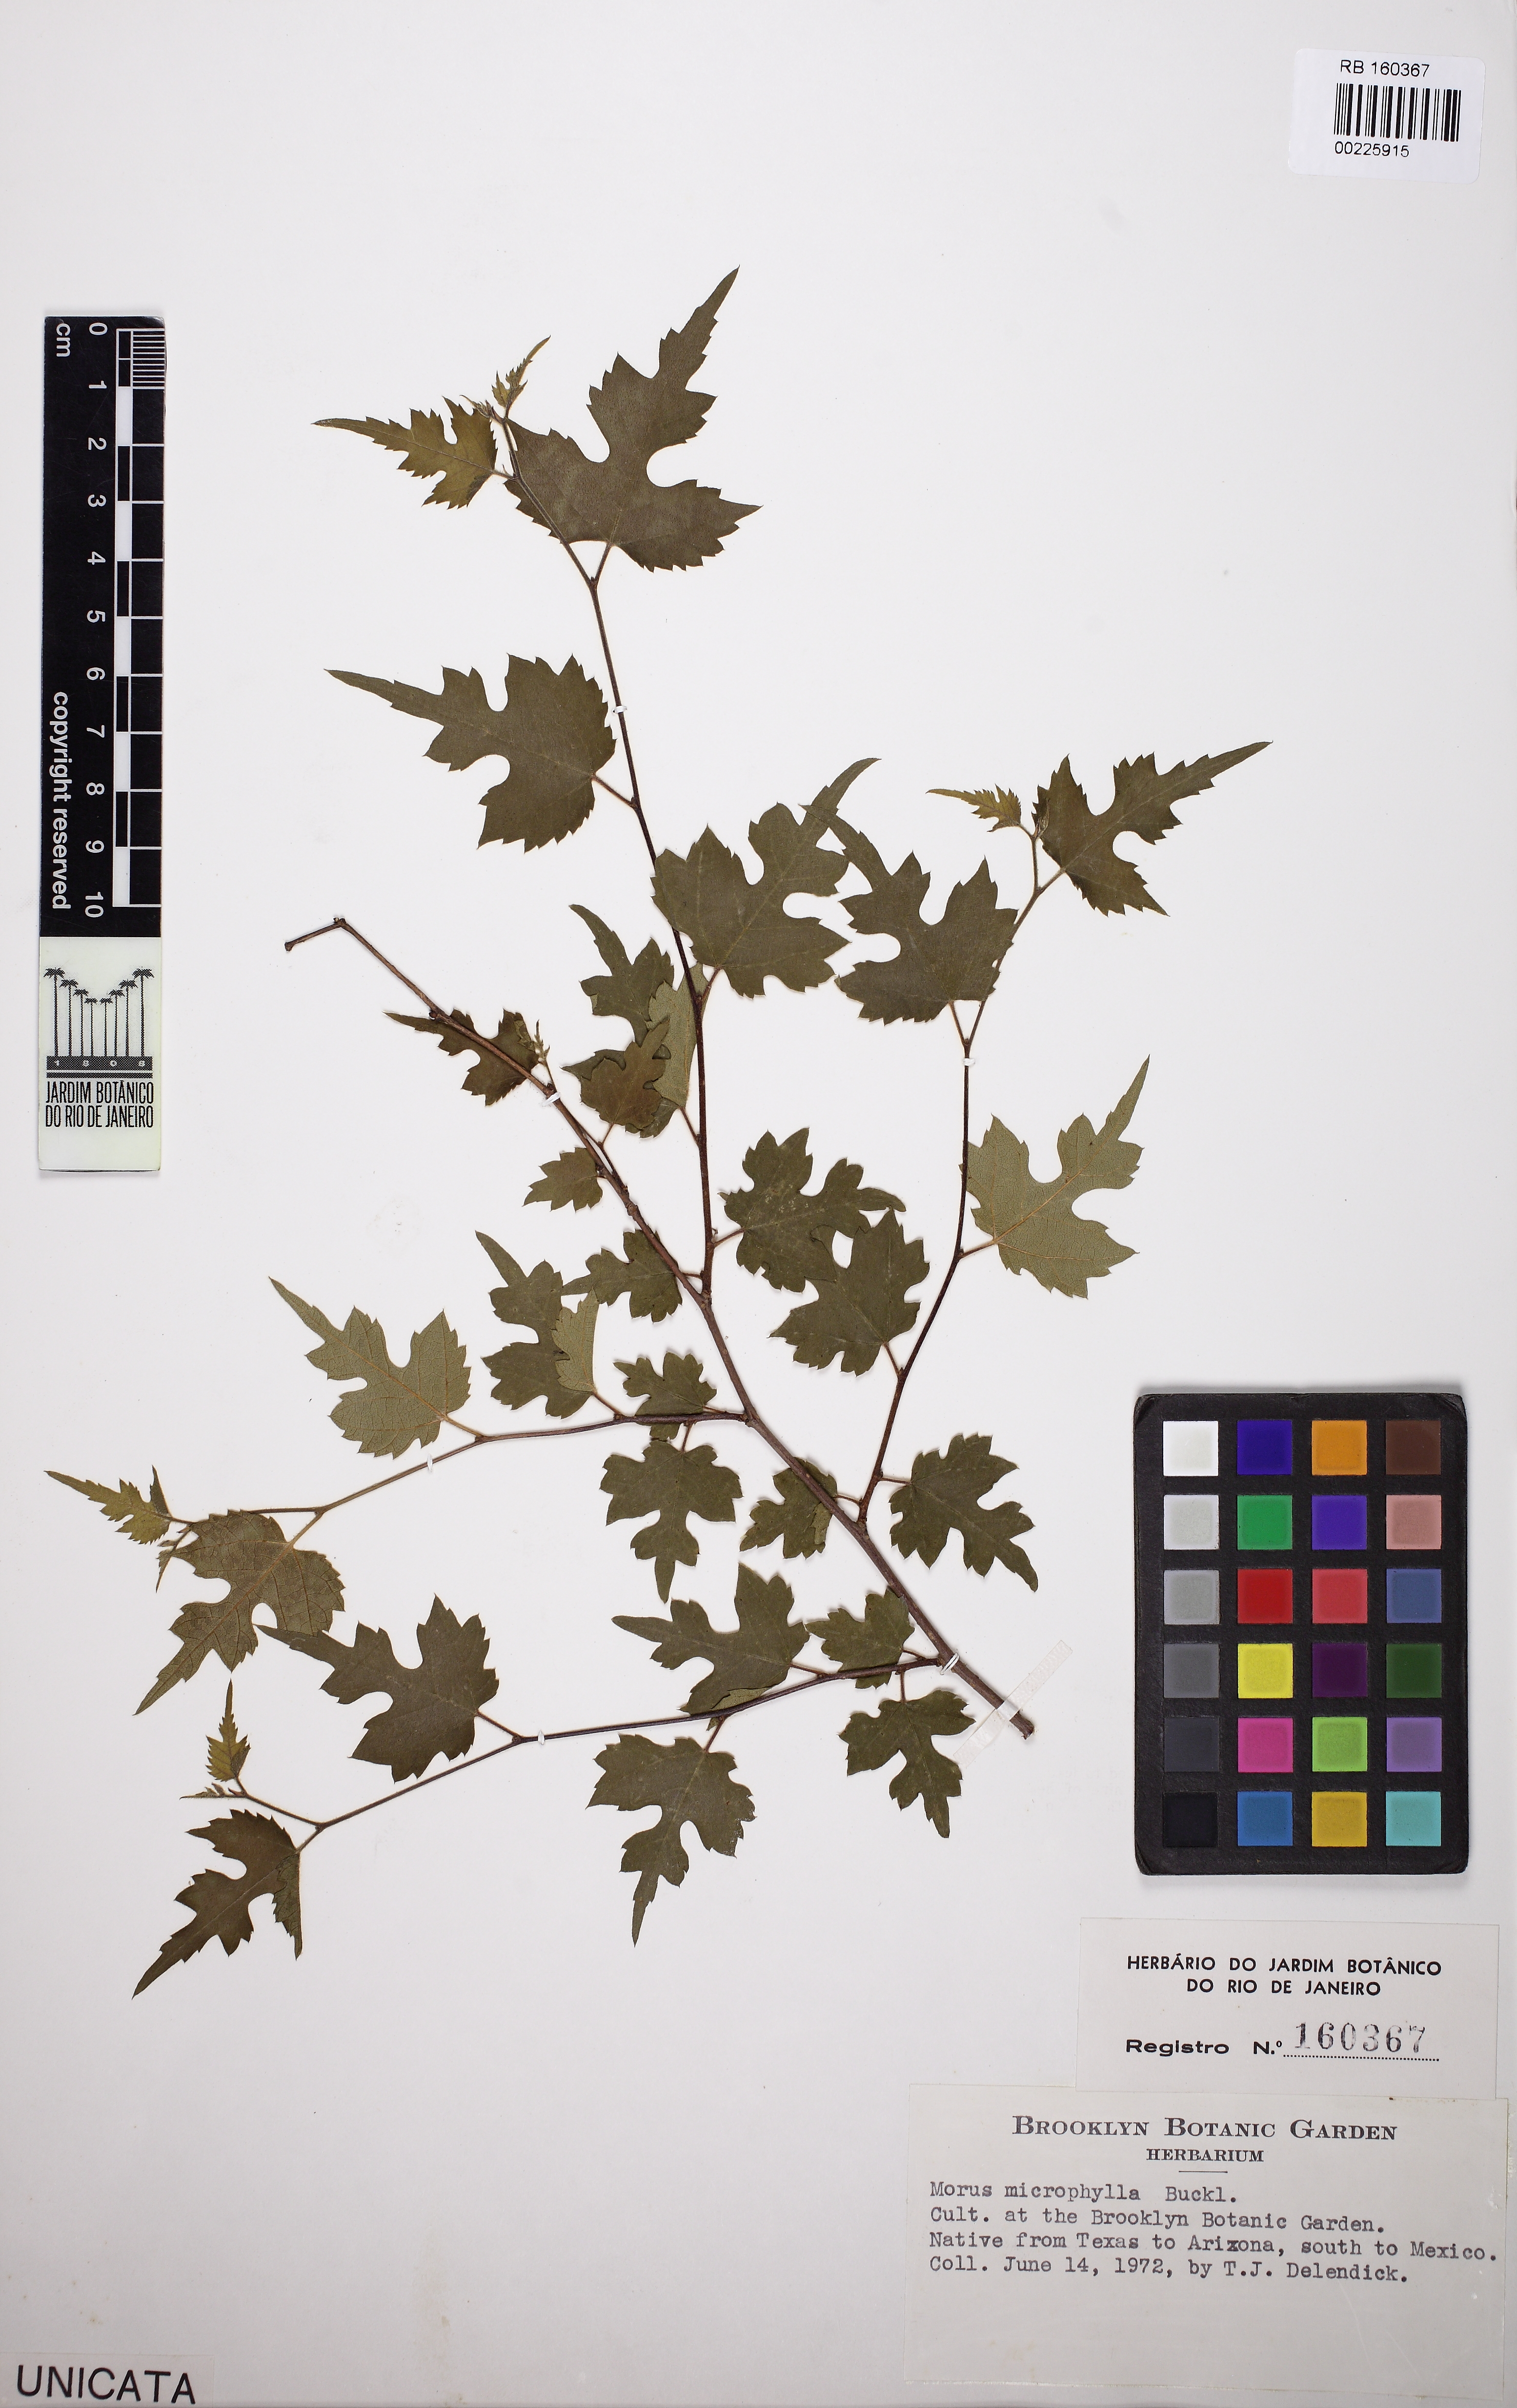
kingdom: Plantae
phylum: Tracheophyta
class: Magnoliopsida
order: Rosales
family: Moraceae
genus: Morus
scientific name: Morus microphylla
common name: Mexican mulberry
